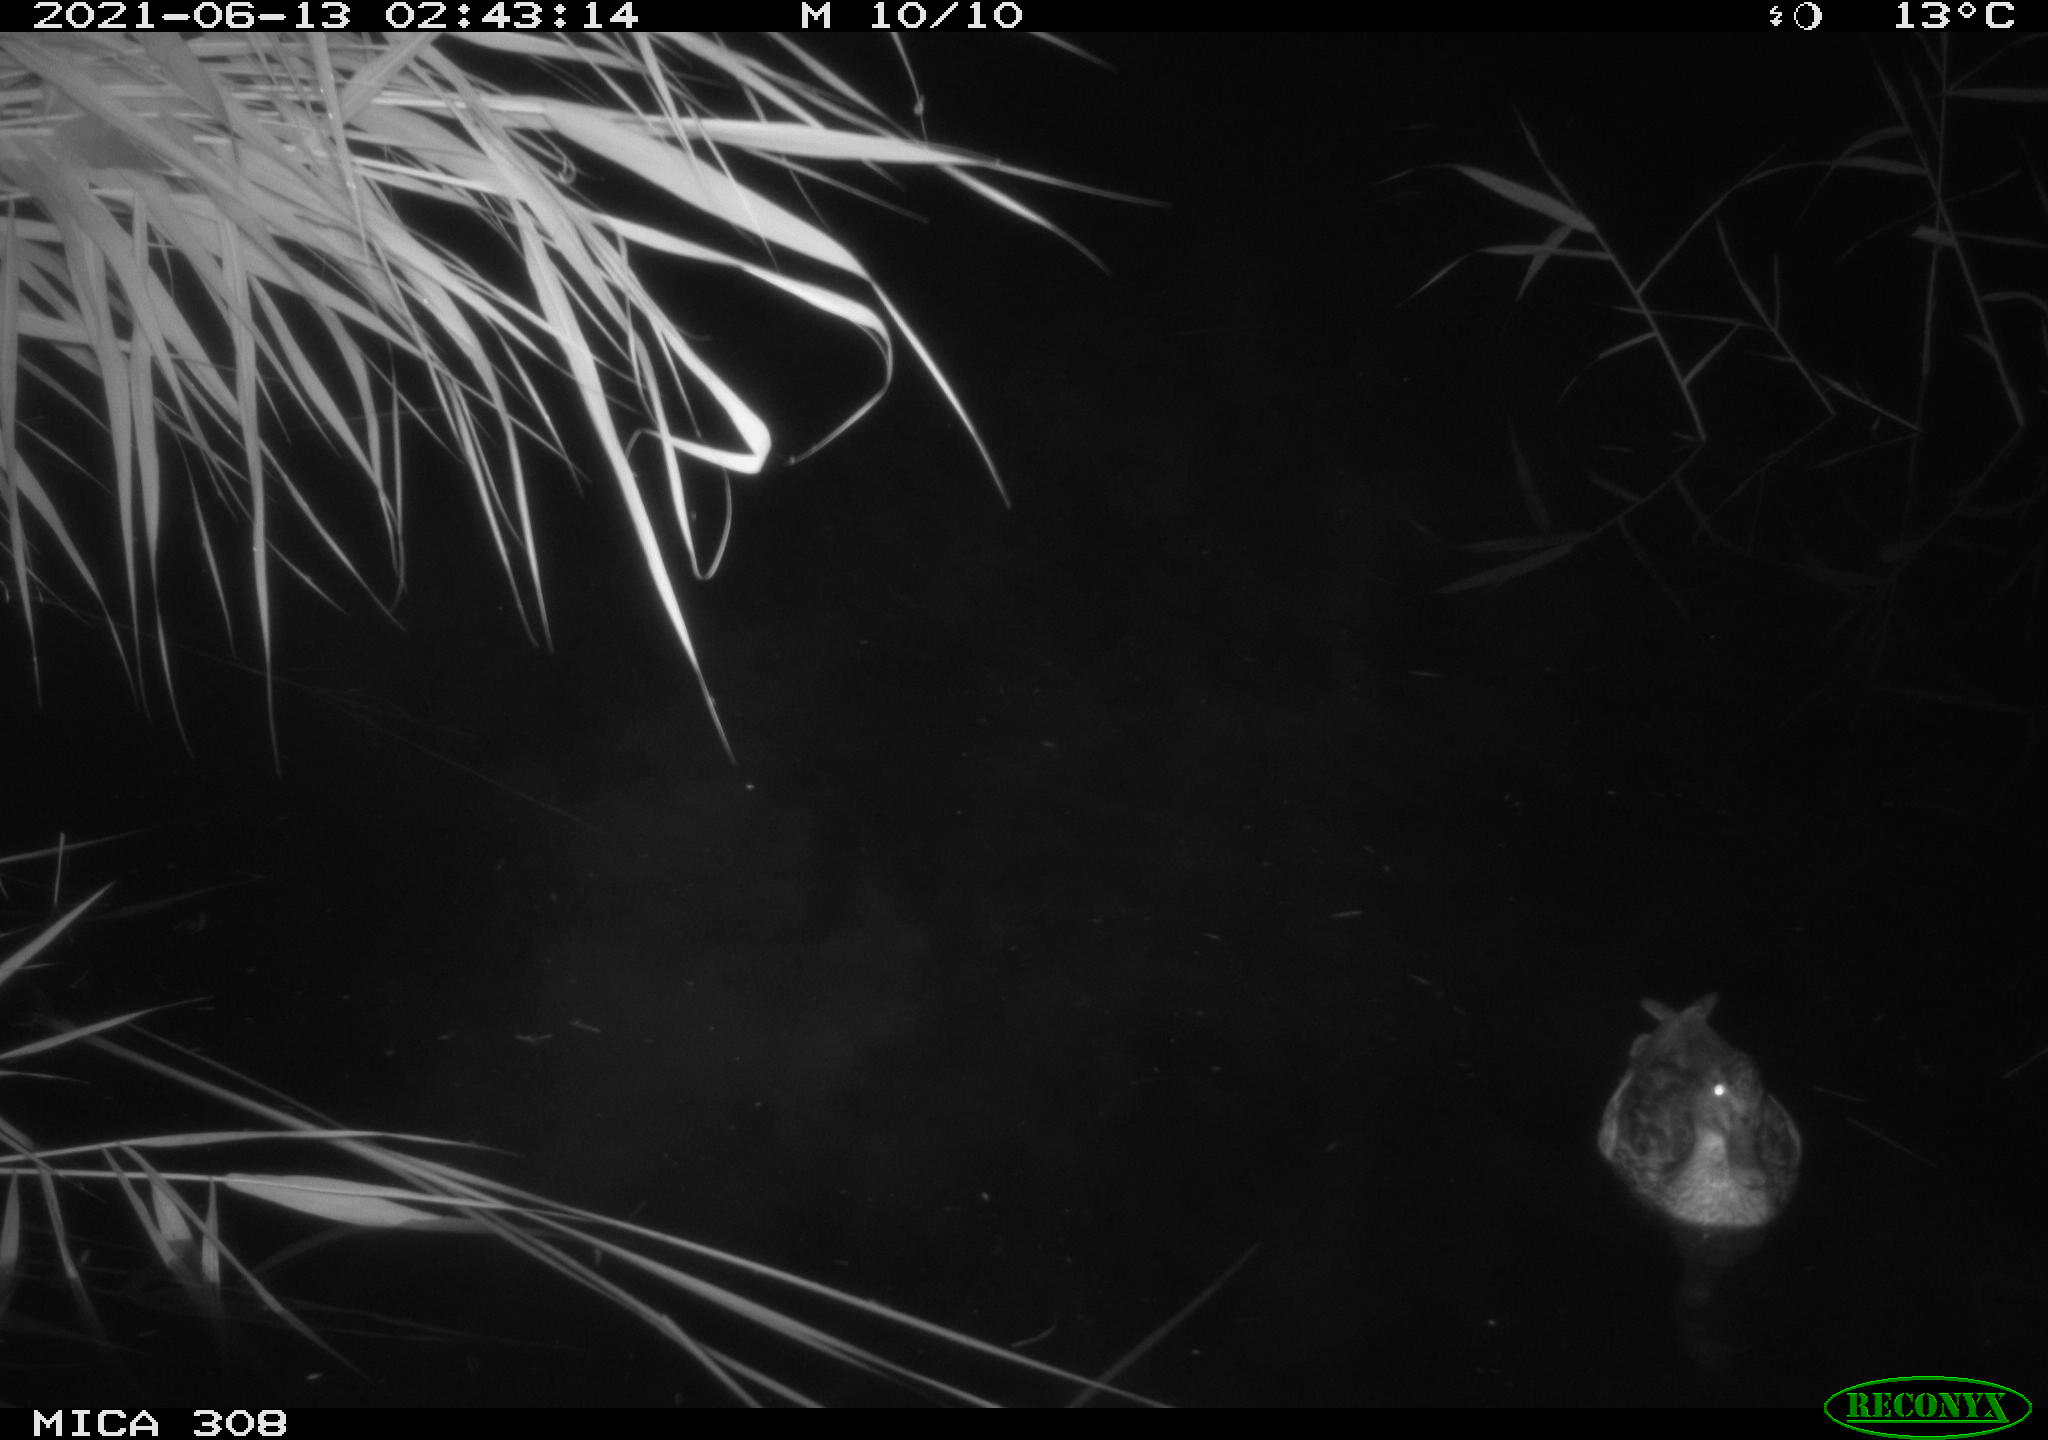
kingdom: Animalia
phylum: Chordata
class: Aves
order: Anseriformes
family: Anatidae
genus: Anas
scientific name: Anas platyrhynchos
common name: Mallard
